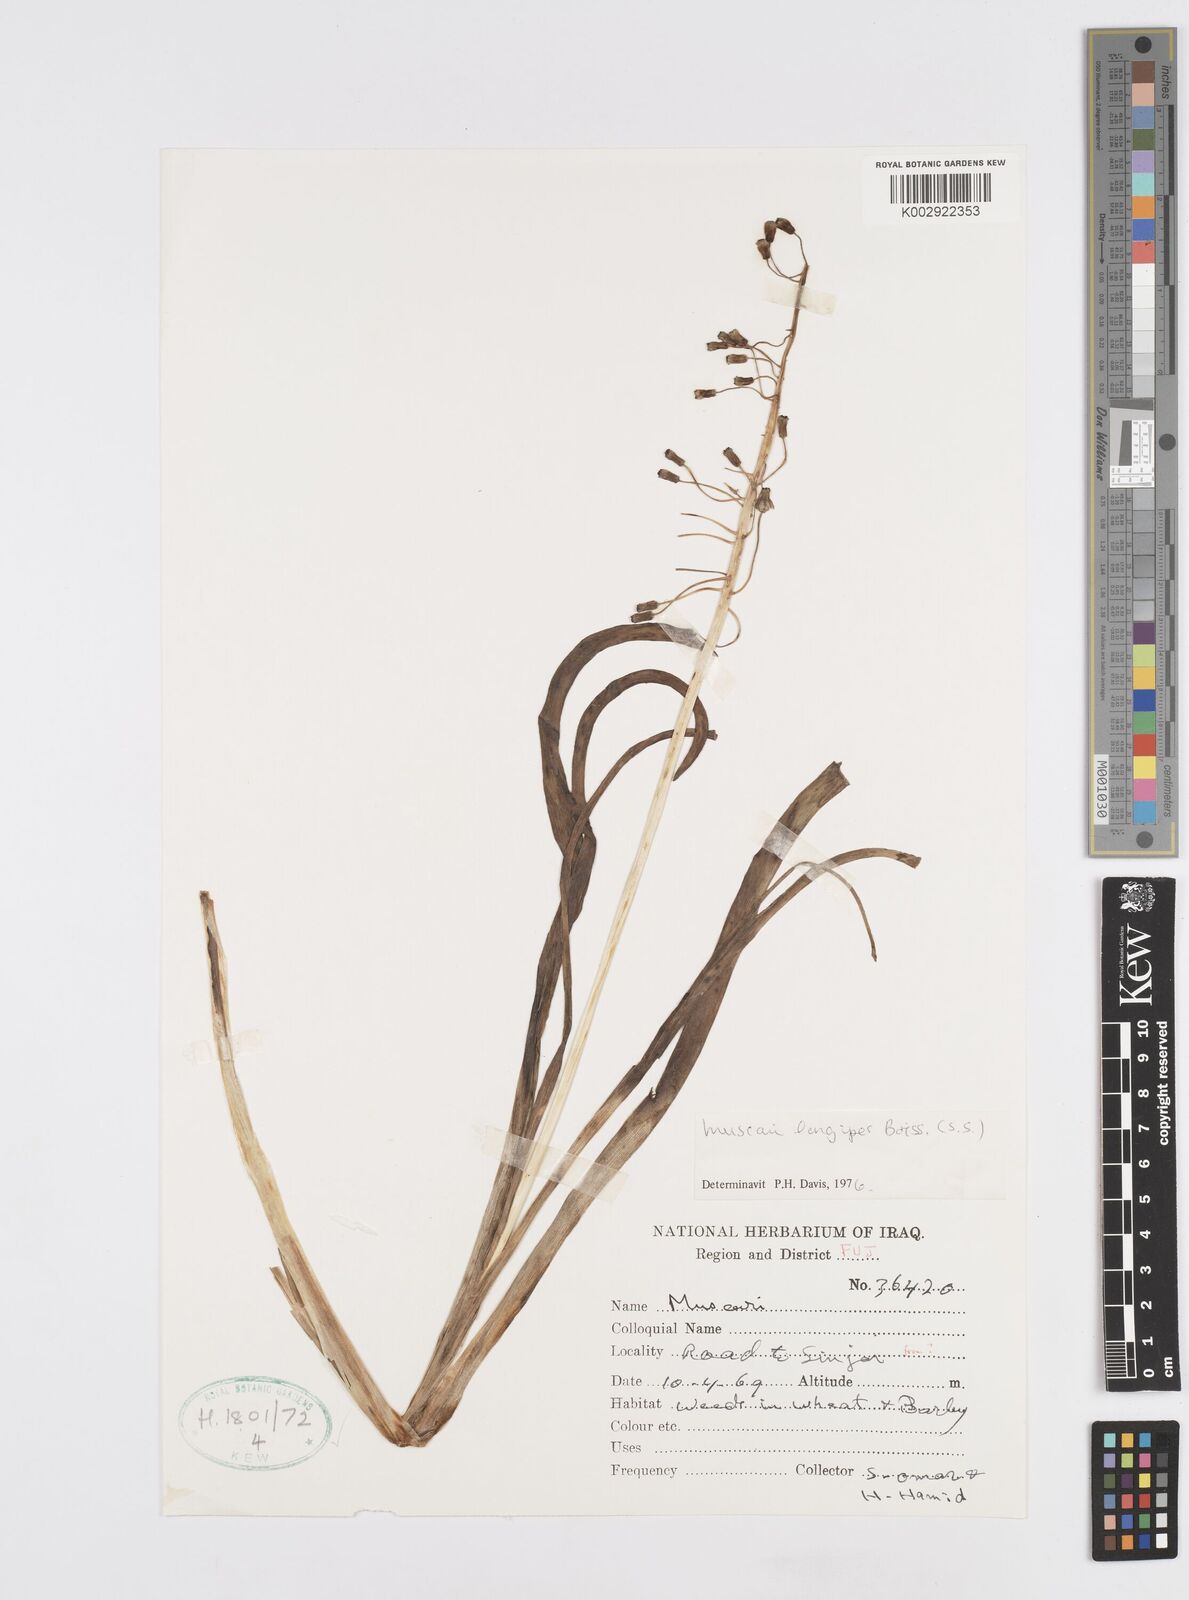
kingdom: Plantae
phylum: Tracheophyta
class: Liliopsida
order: Asparagales
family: Asparagaceae
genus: Muscari
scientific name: Muscari longipes
